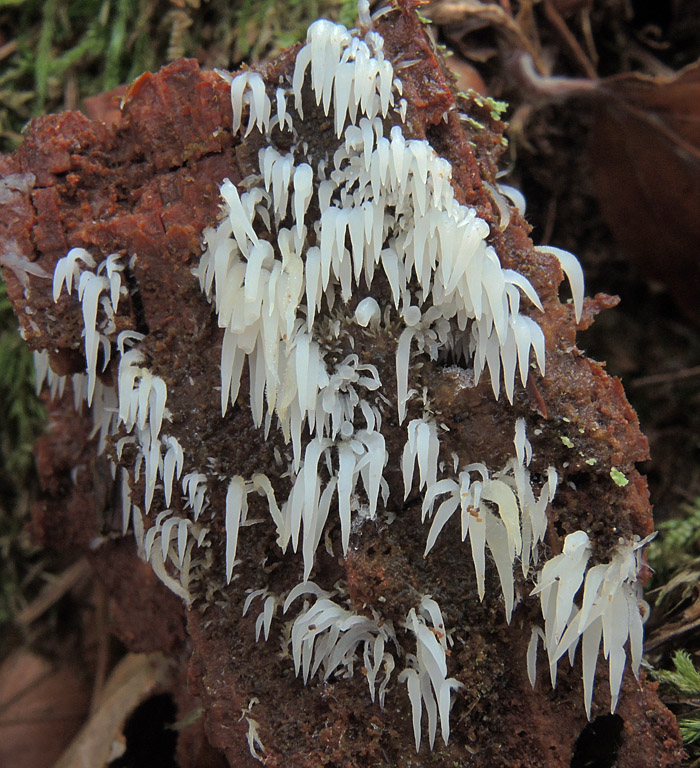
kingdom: Fungi
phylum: Basidiomycota
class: Agaricomycetes
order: Agaricales
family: Clavariaceae
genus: Mucronella
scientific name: Mucronella bresadolae
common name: knippe-hængepig
